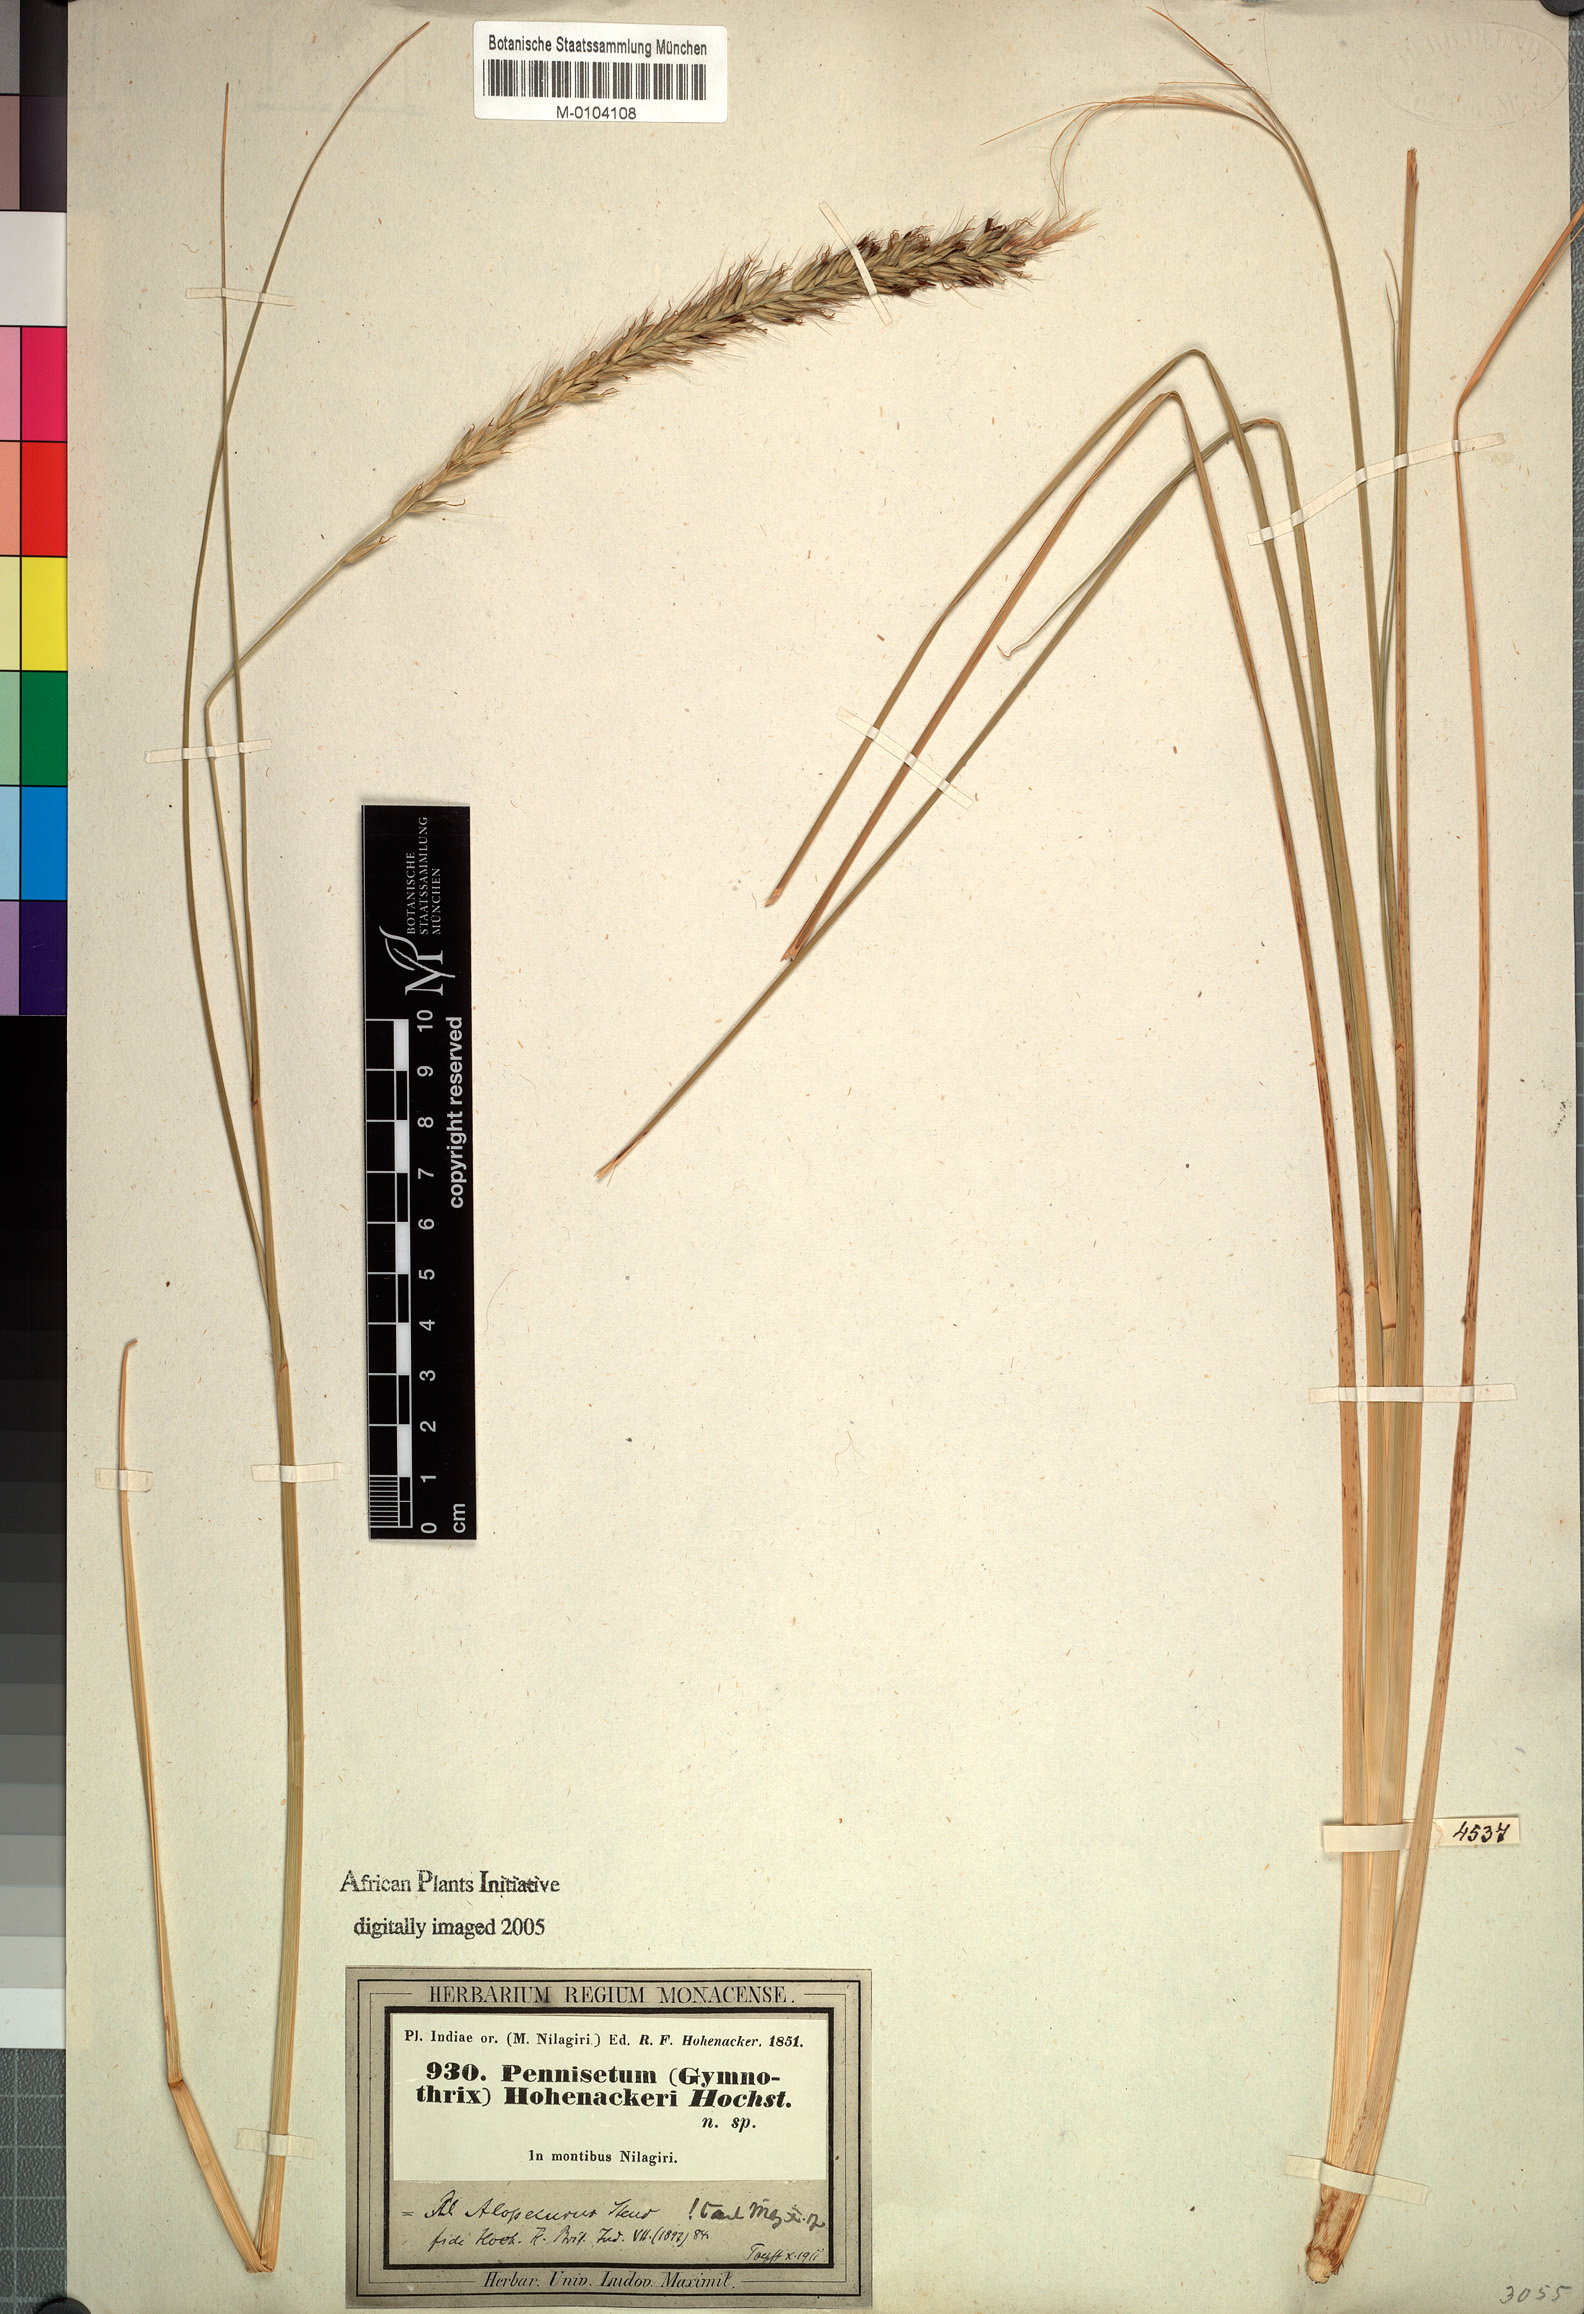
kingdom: Plantae
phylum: Tracheophyta
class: Liliopsida
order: Poales
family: Poaceae
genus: Cenchrus
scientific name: Cenchrus hohenackeri
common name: Moya grass
